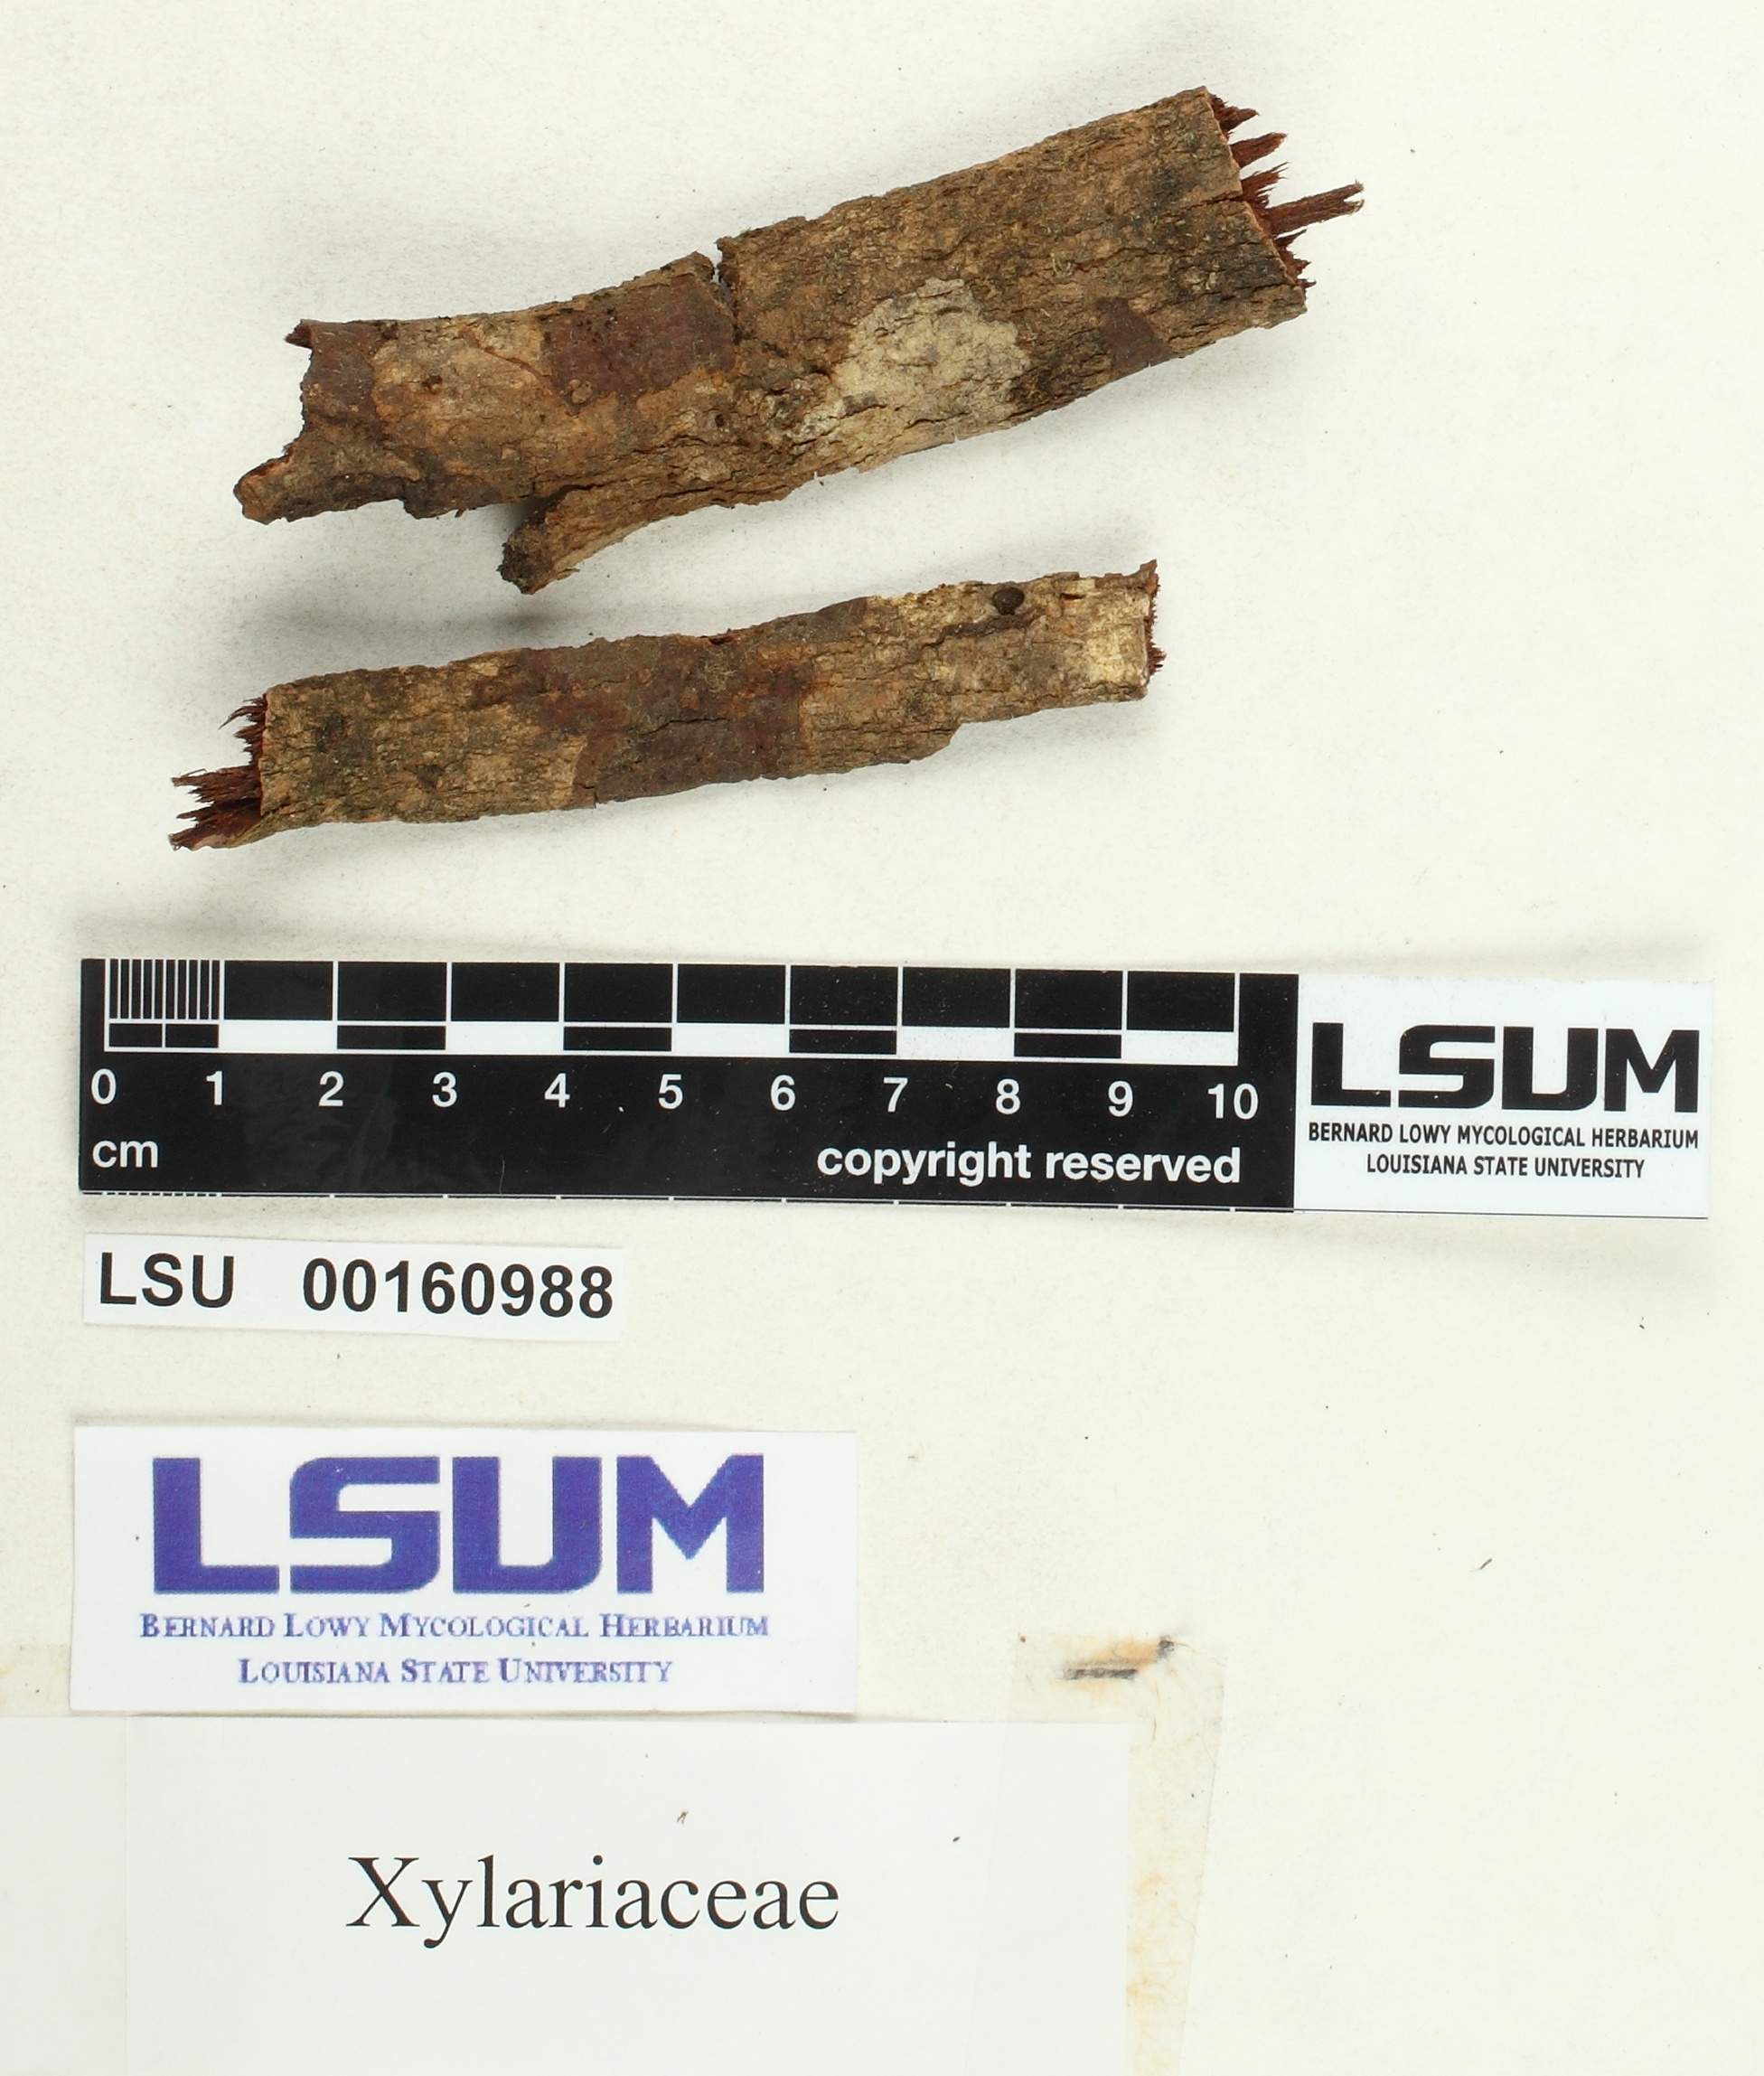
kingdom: Fungi
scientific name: Fungi
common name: Fungi
